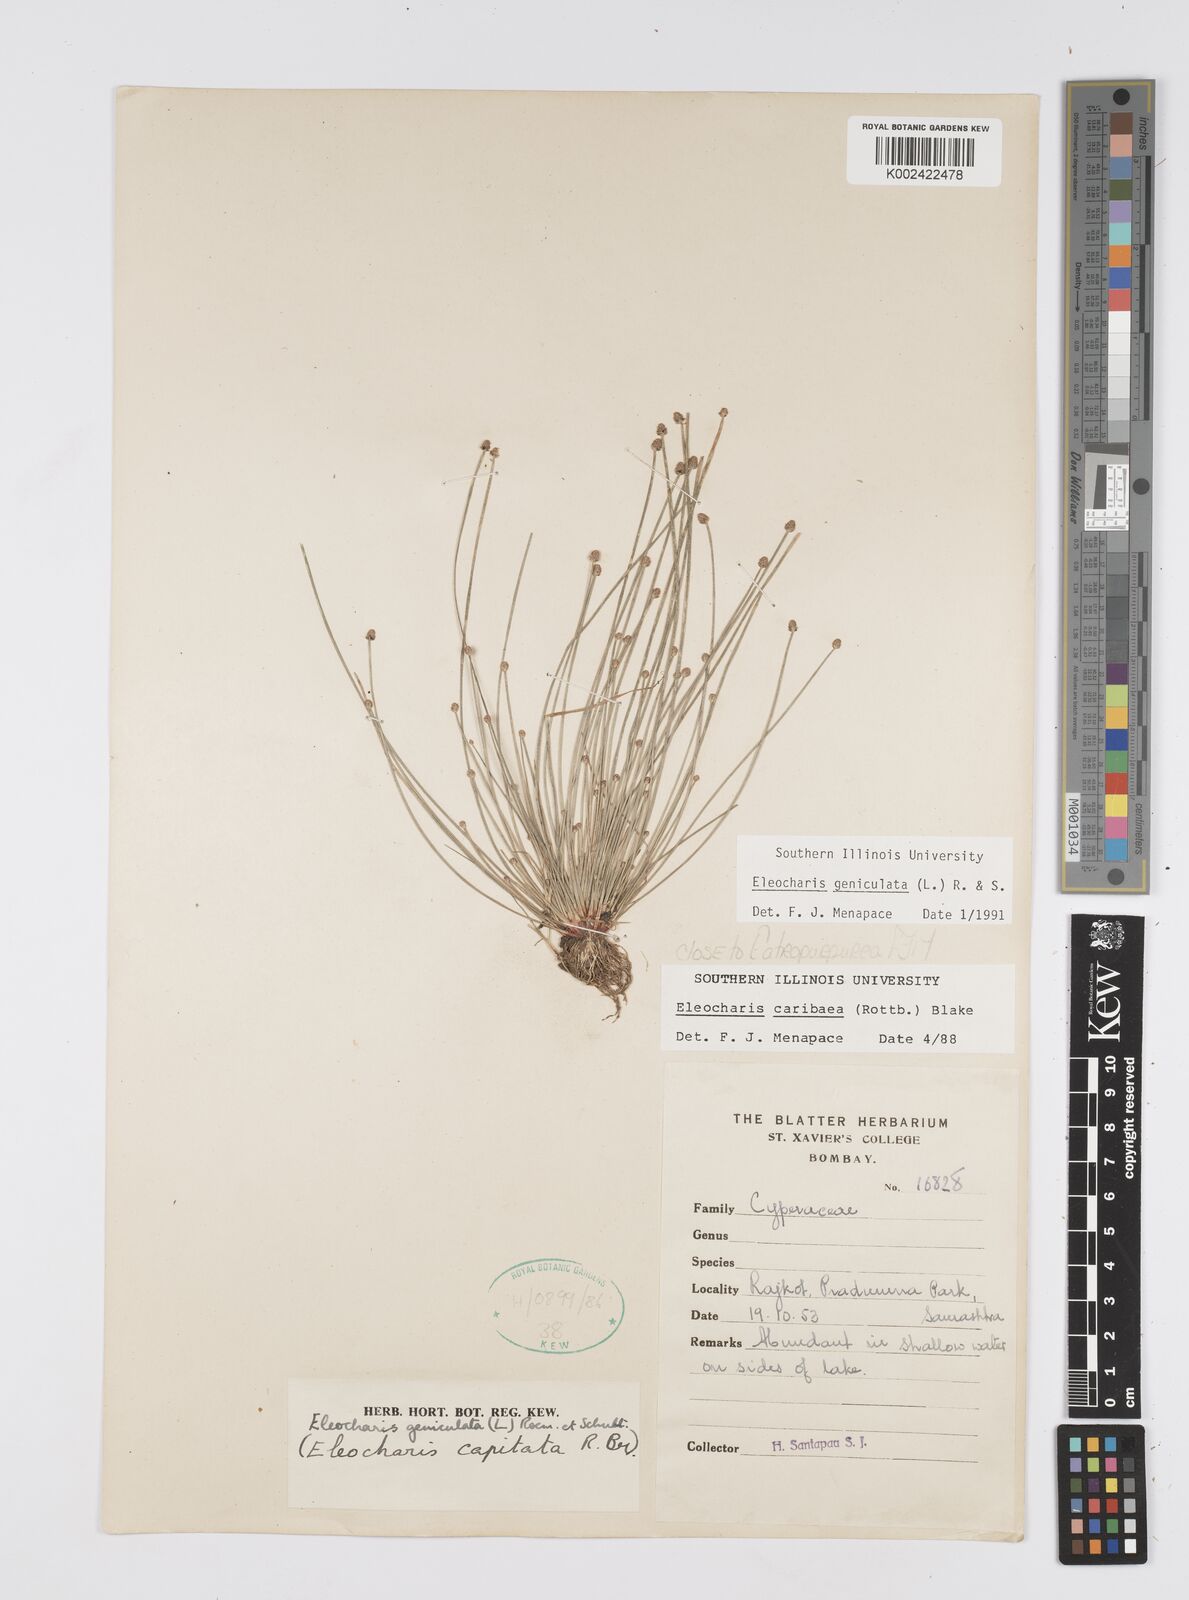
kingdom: Plantae
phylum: Tracheophyta
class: Liliopsida
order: Poales
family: Cyperaceae
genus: Eleocharis
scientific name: Eleocharis geniculata
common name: Canada spikesedge
